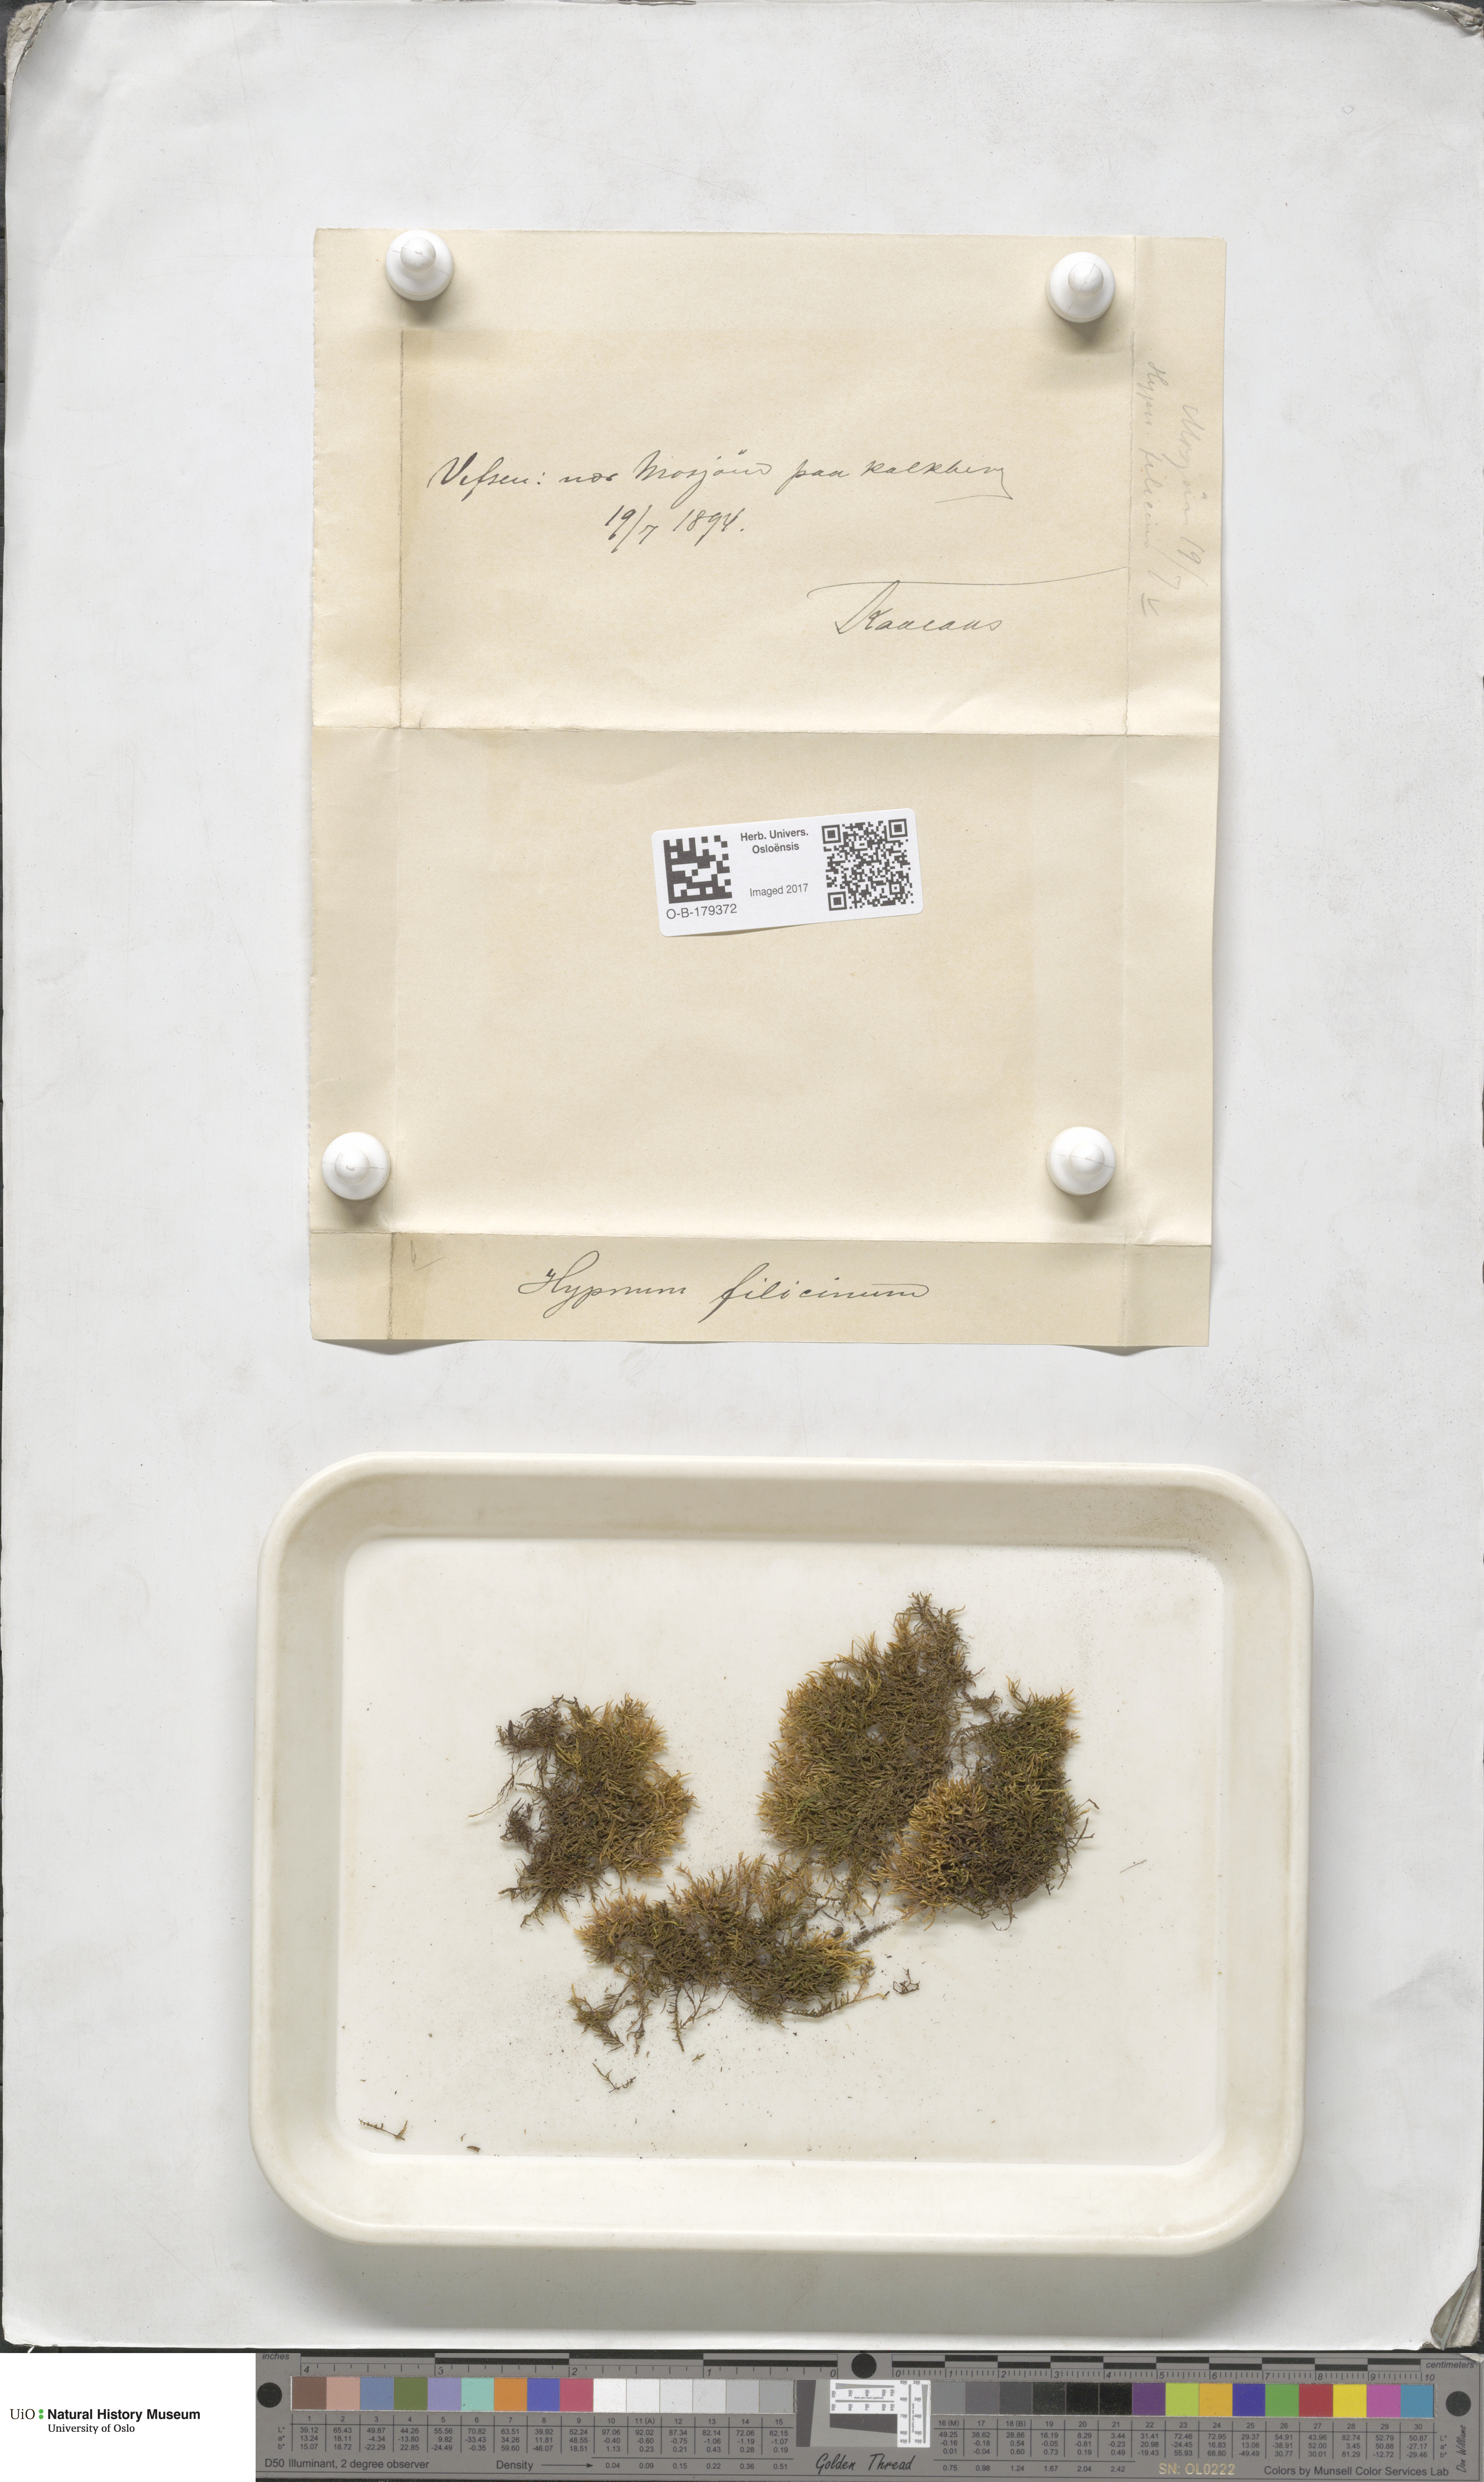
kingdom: Plantae
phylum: Bryophyta
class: Bryopsida
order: Hypnales
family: Amblystegiaceae
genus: Cratoneuron
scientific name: Cratoneuron filicinum
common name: Fern-leaved hook moss
